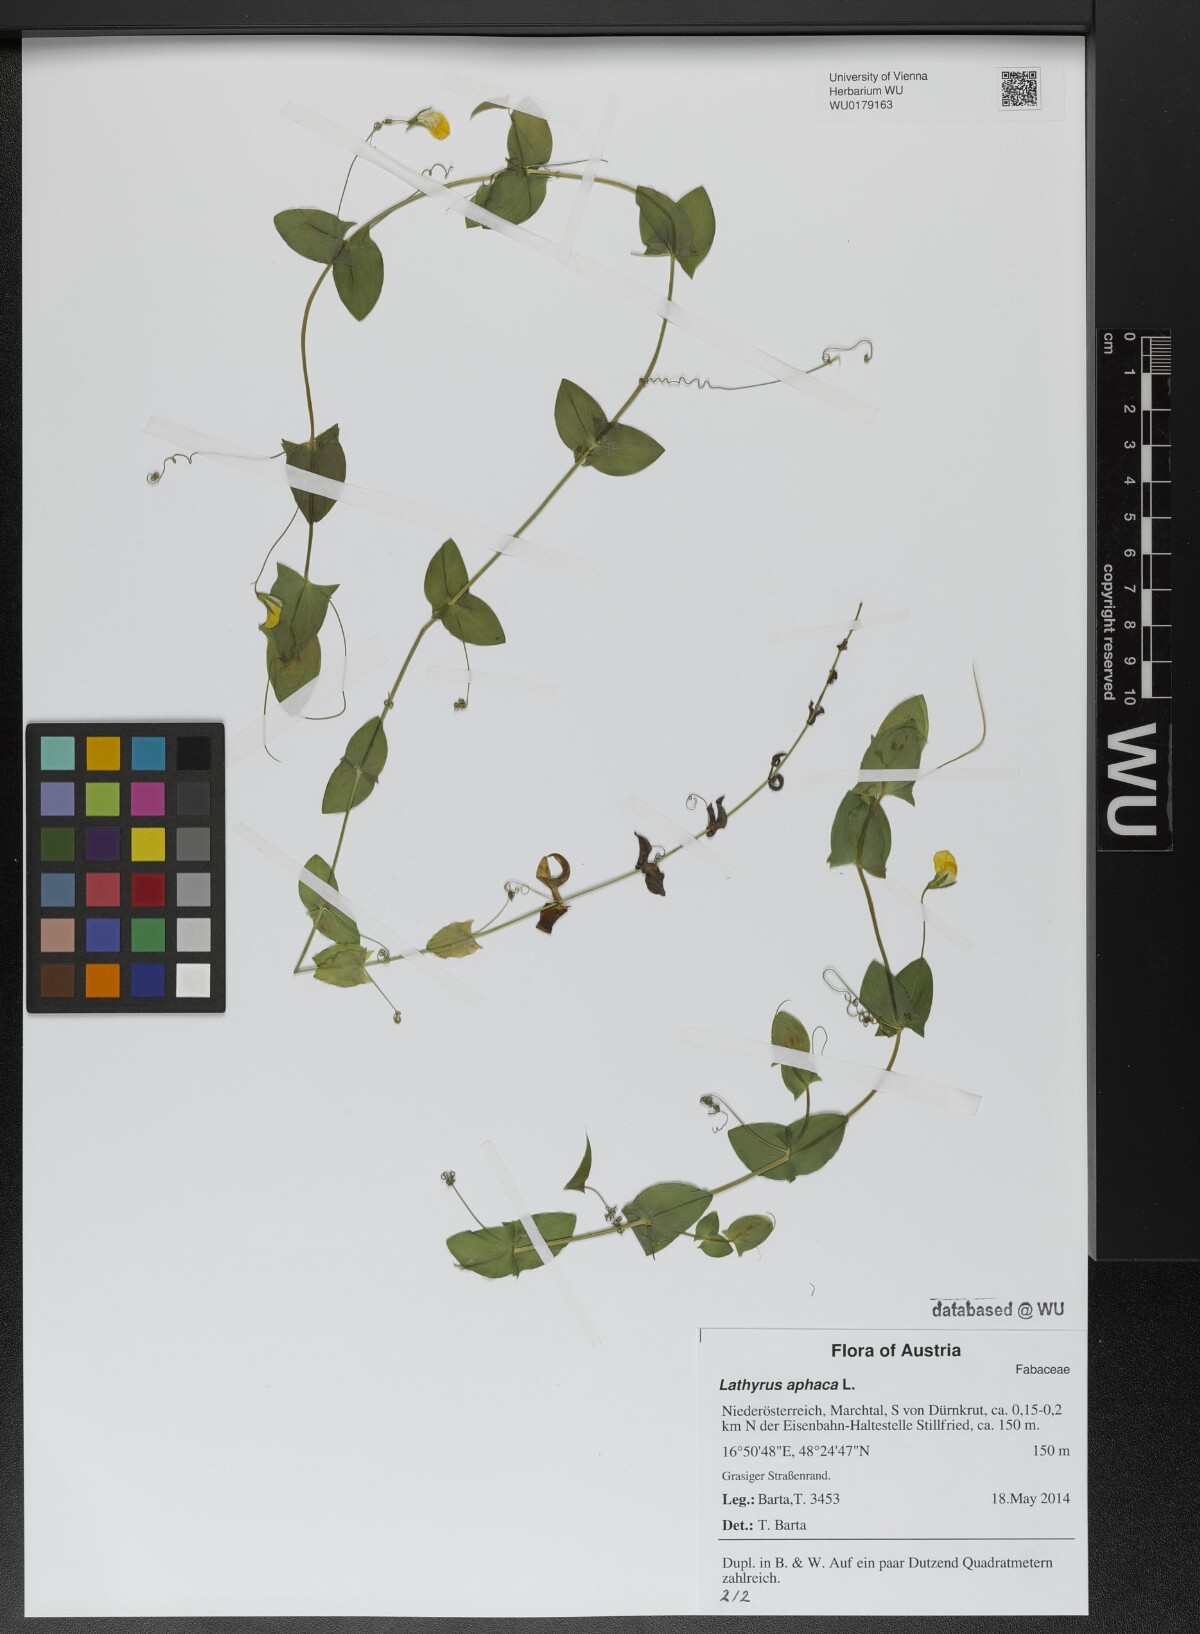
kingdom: Plantae
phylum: Tracheophyta
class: Magnoliopsida
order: Fabales
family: Fabaceae
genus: Lathyrus
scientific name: Lathyrus aphaca
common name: Yellow vetchling
